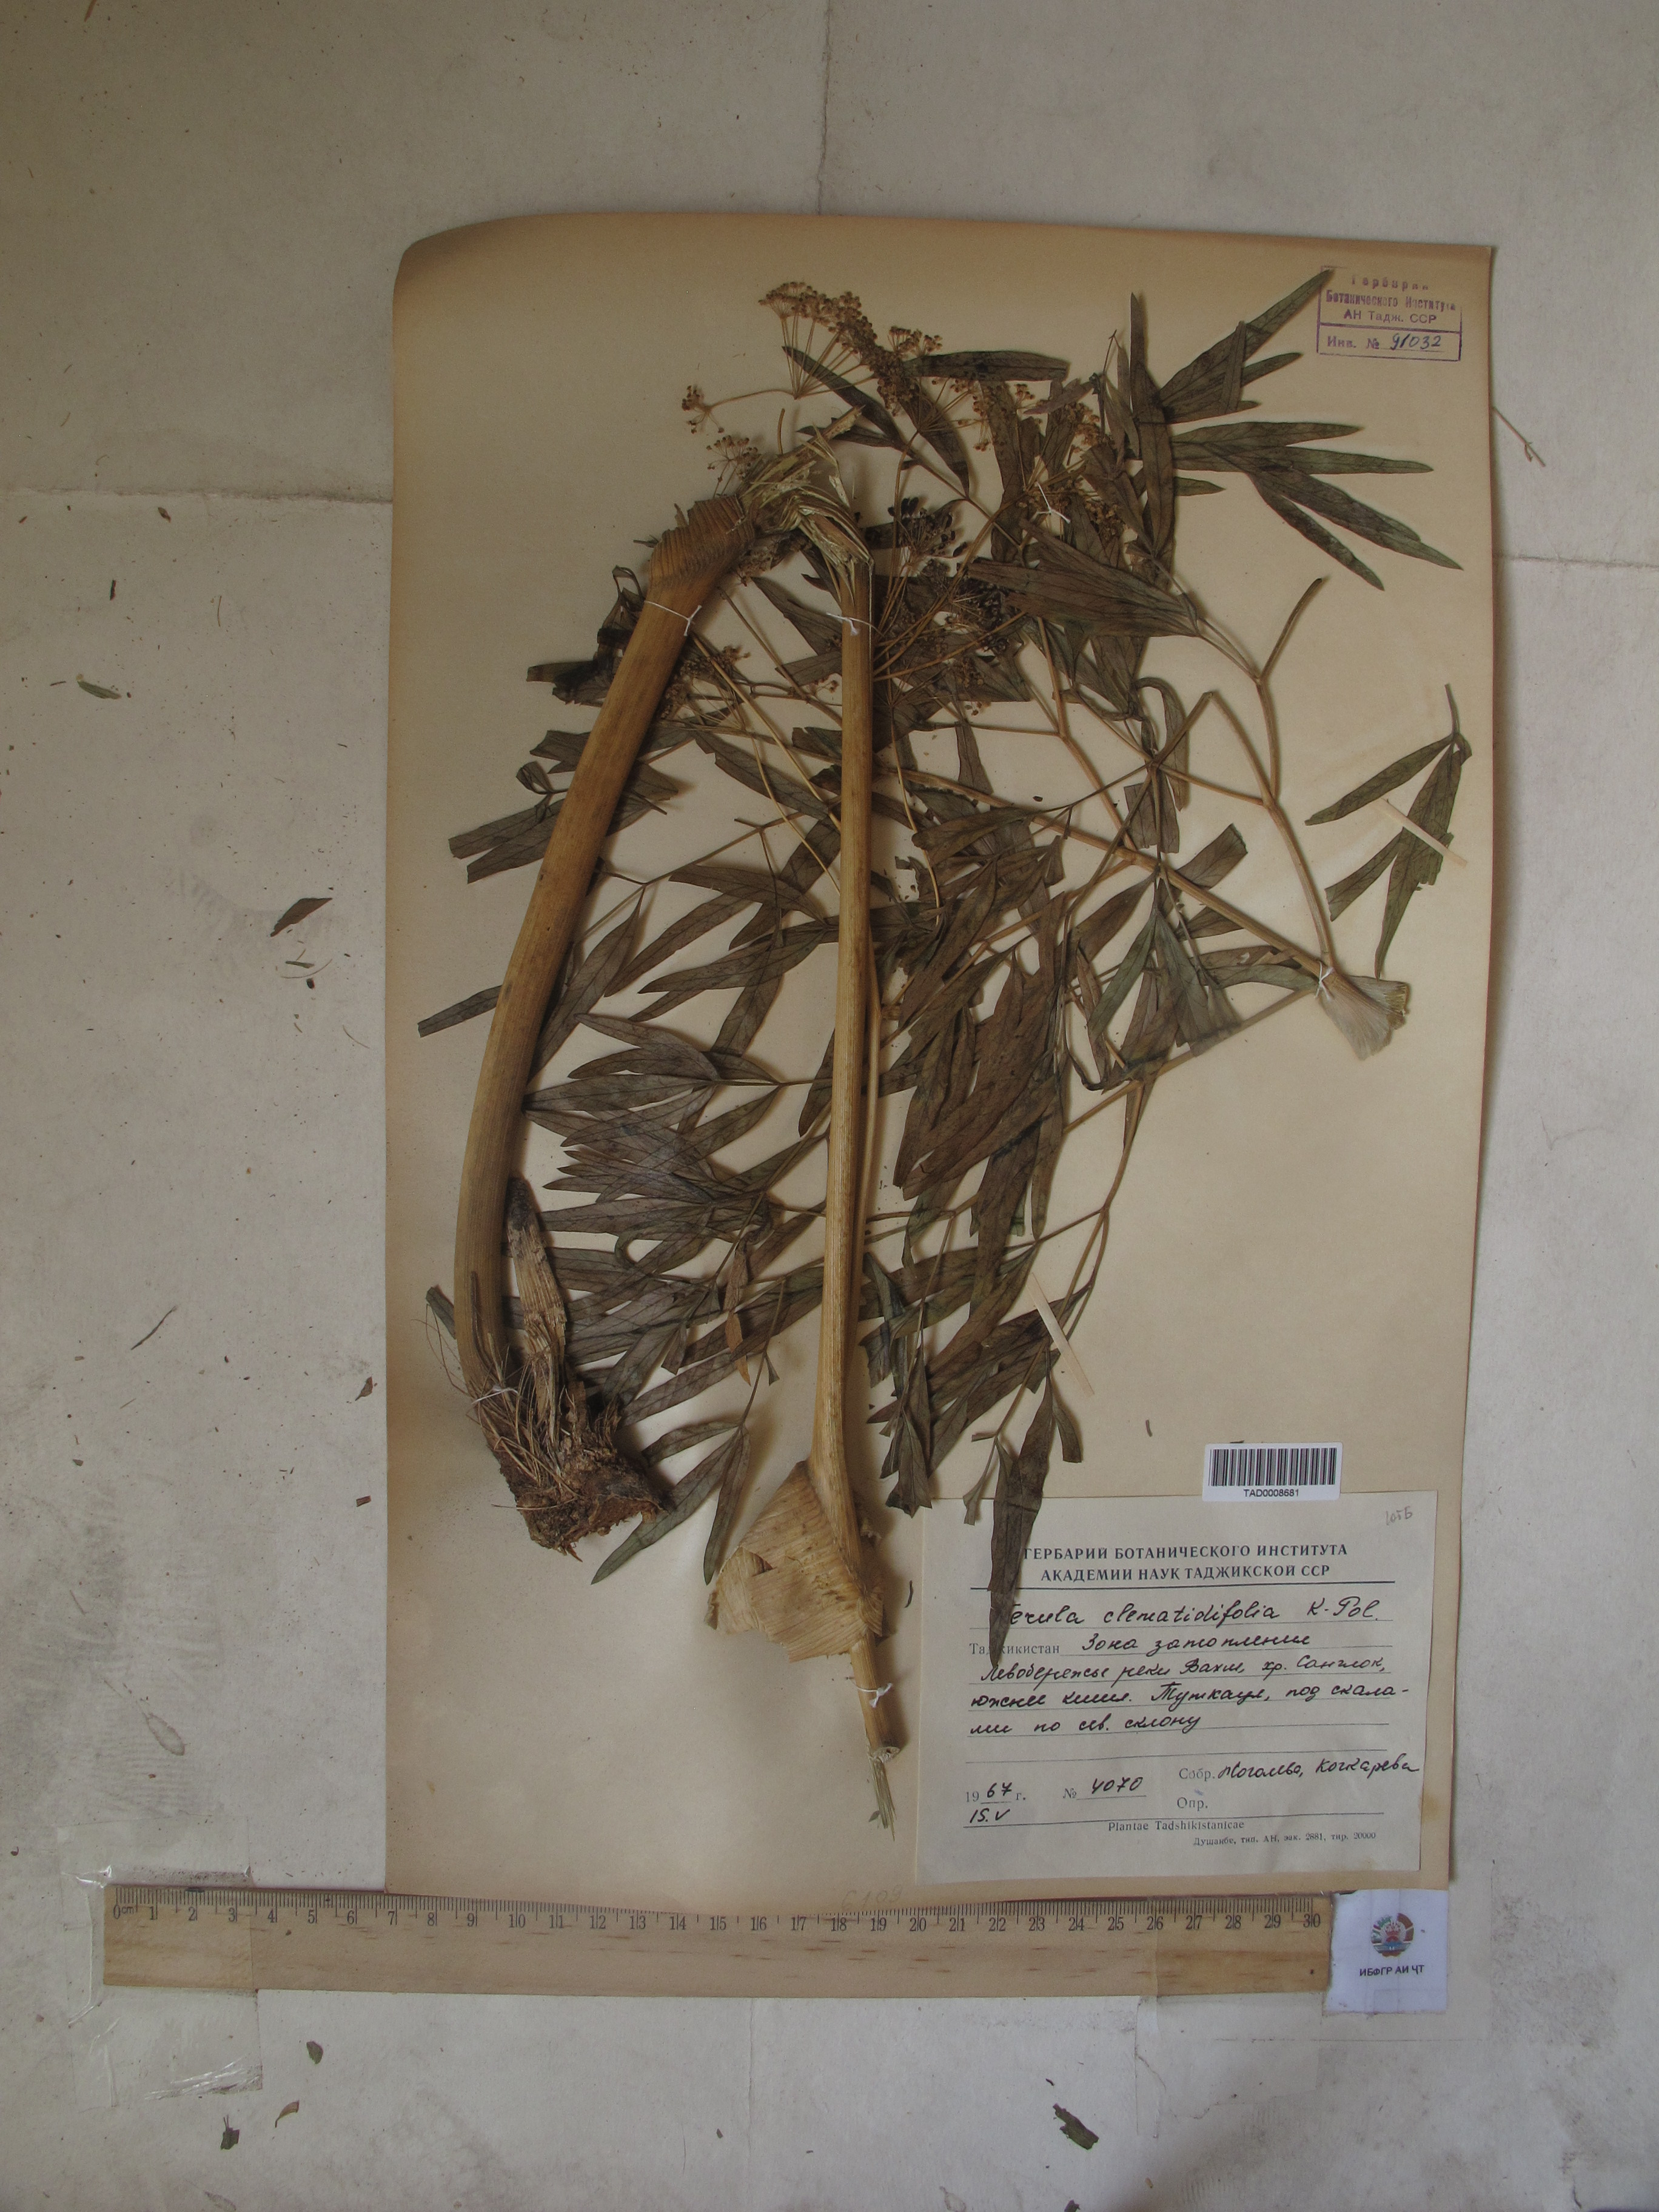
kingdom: Plantae
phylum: Tracheophyta
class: Magnoliopsida
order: Apiales
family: Apiaceae
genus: Ferula
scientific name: Ferula clematidifolia
